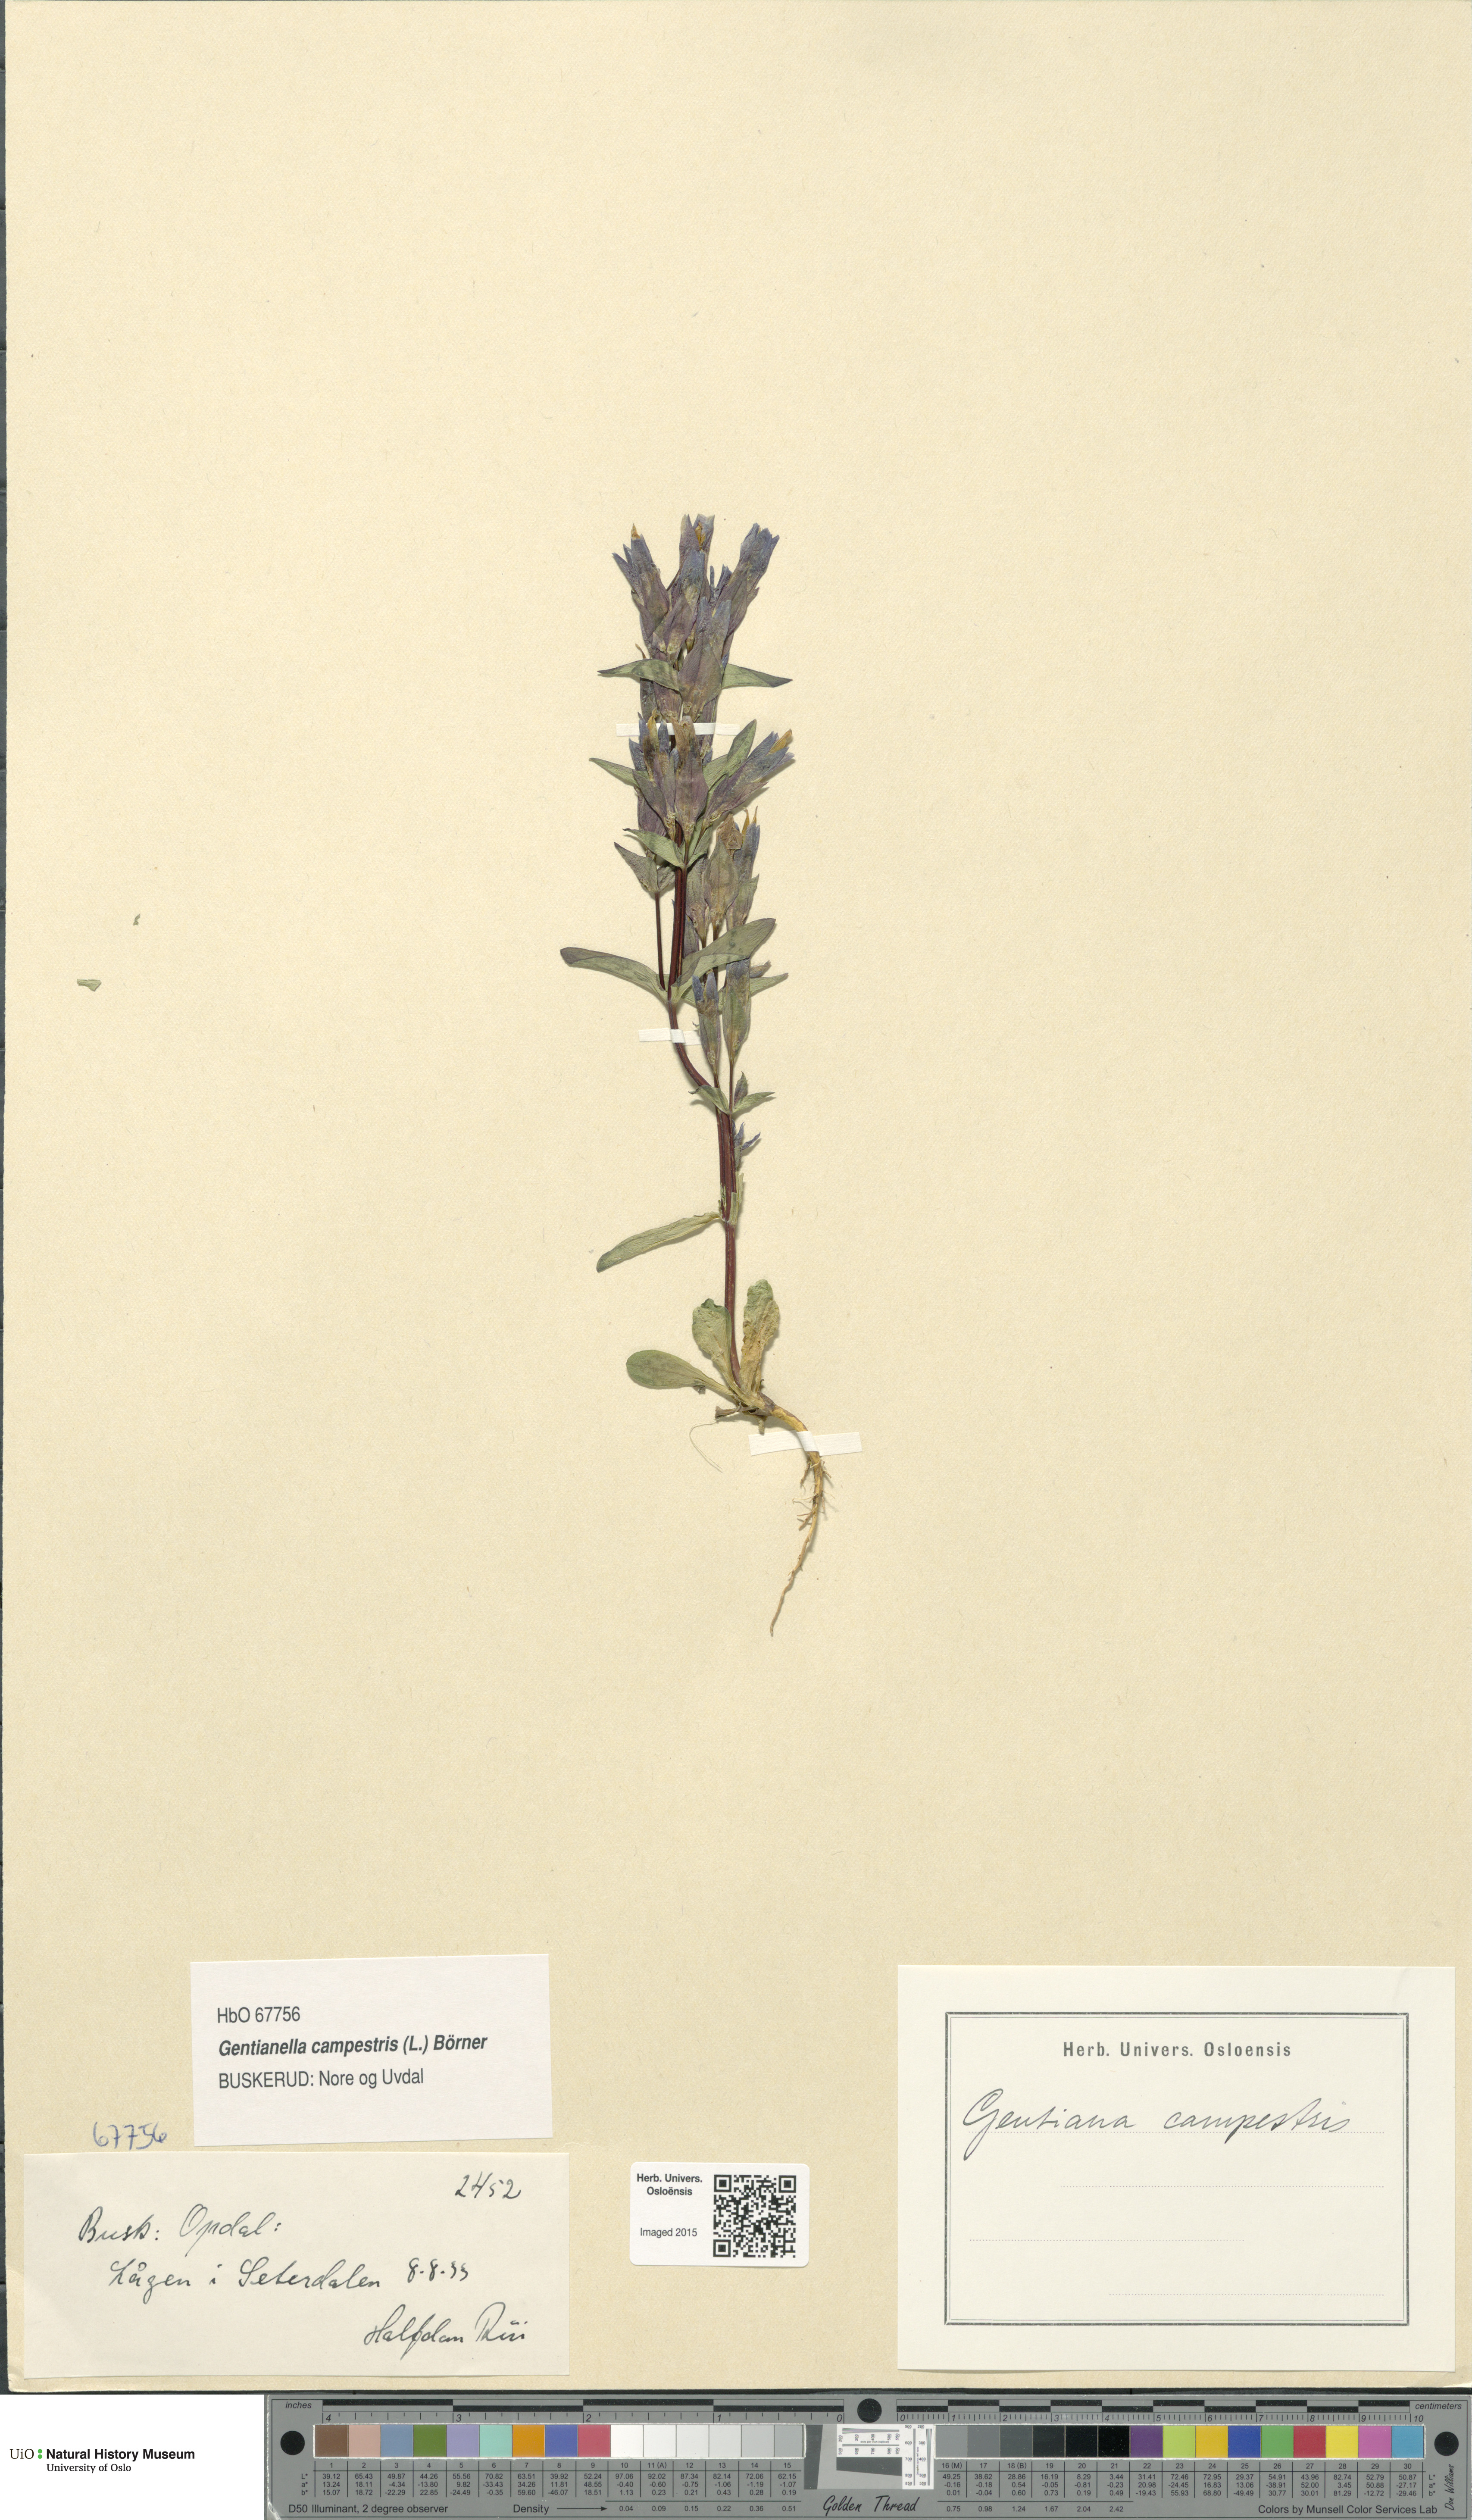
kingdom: Plantae
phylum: Tracheophyta
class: Magnoliopsida
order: Gentianales
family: Gentianaceae
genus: Gentianella
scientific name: Gentianella campestris
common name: Field gentian
